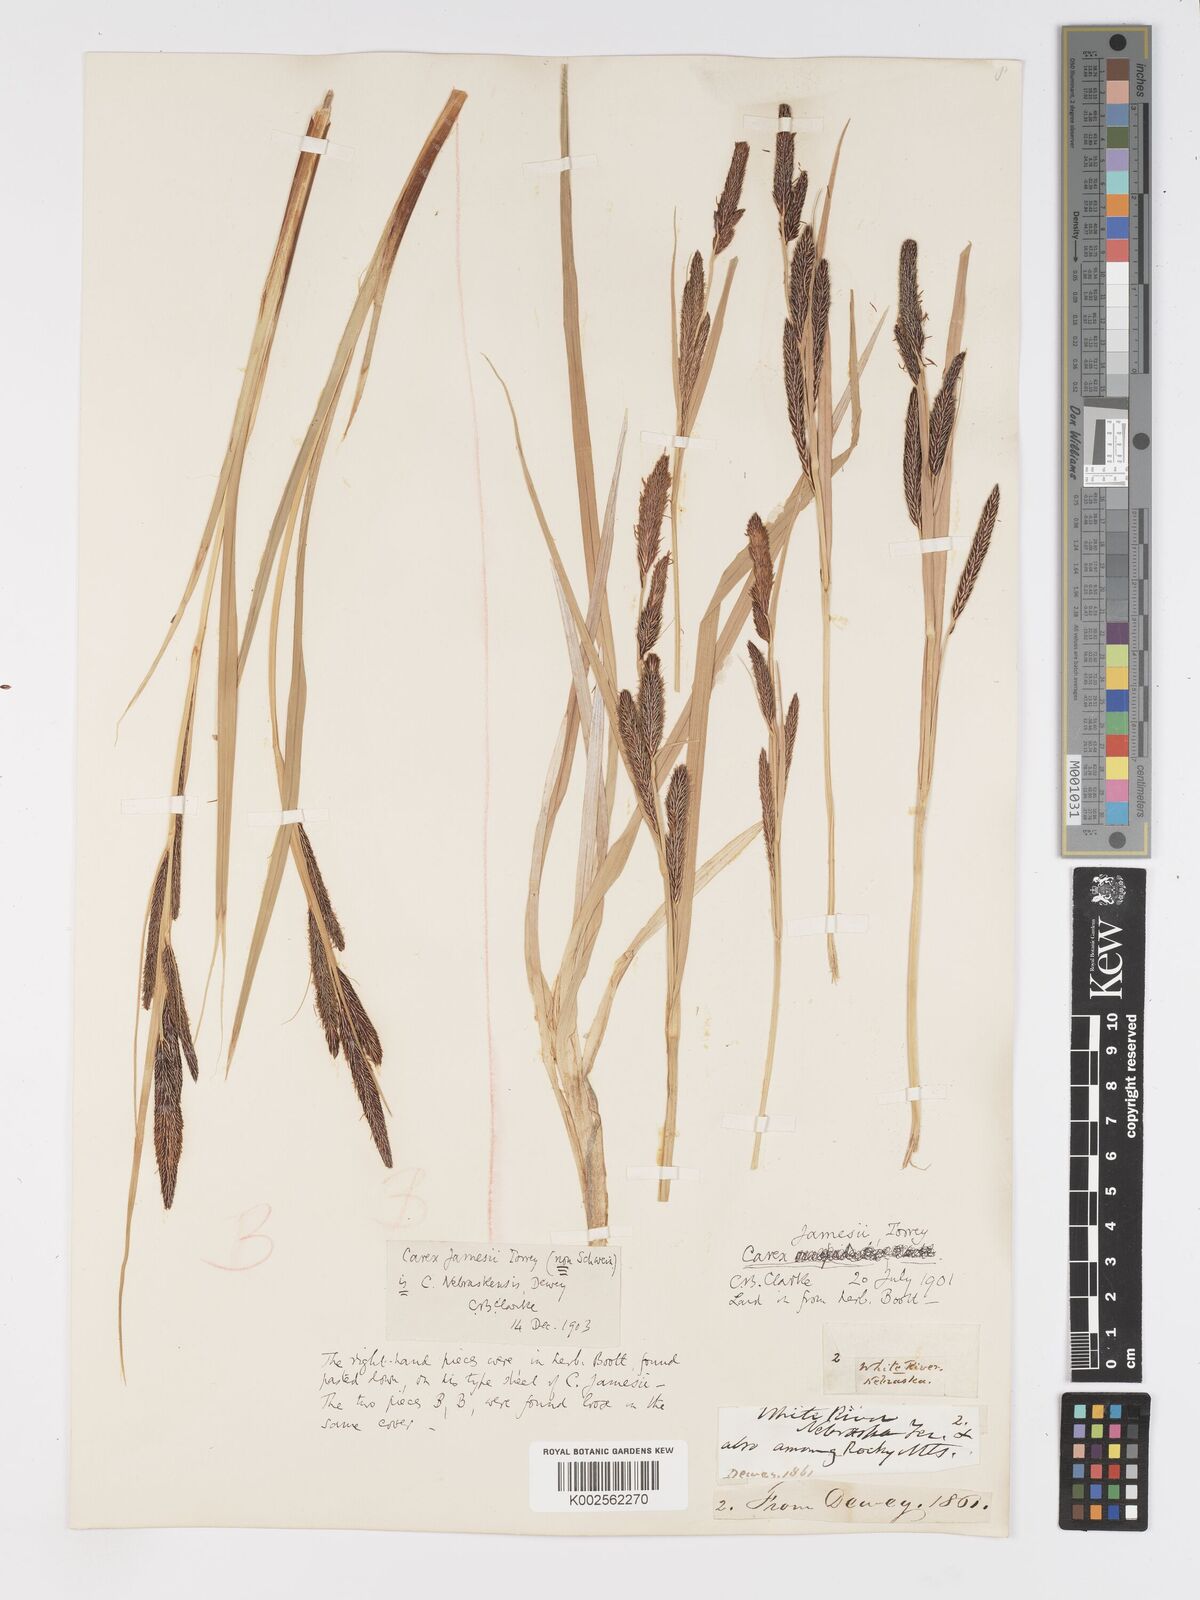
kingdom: Plantae
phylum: Tracheophyta
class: Liliopsida
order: Poales
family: Cyperaceae
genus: Carex
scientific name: Carex nebrascensis
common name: Nebraska sedge
